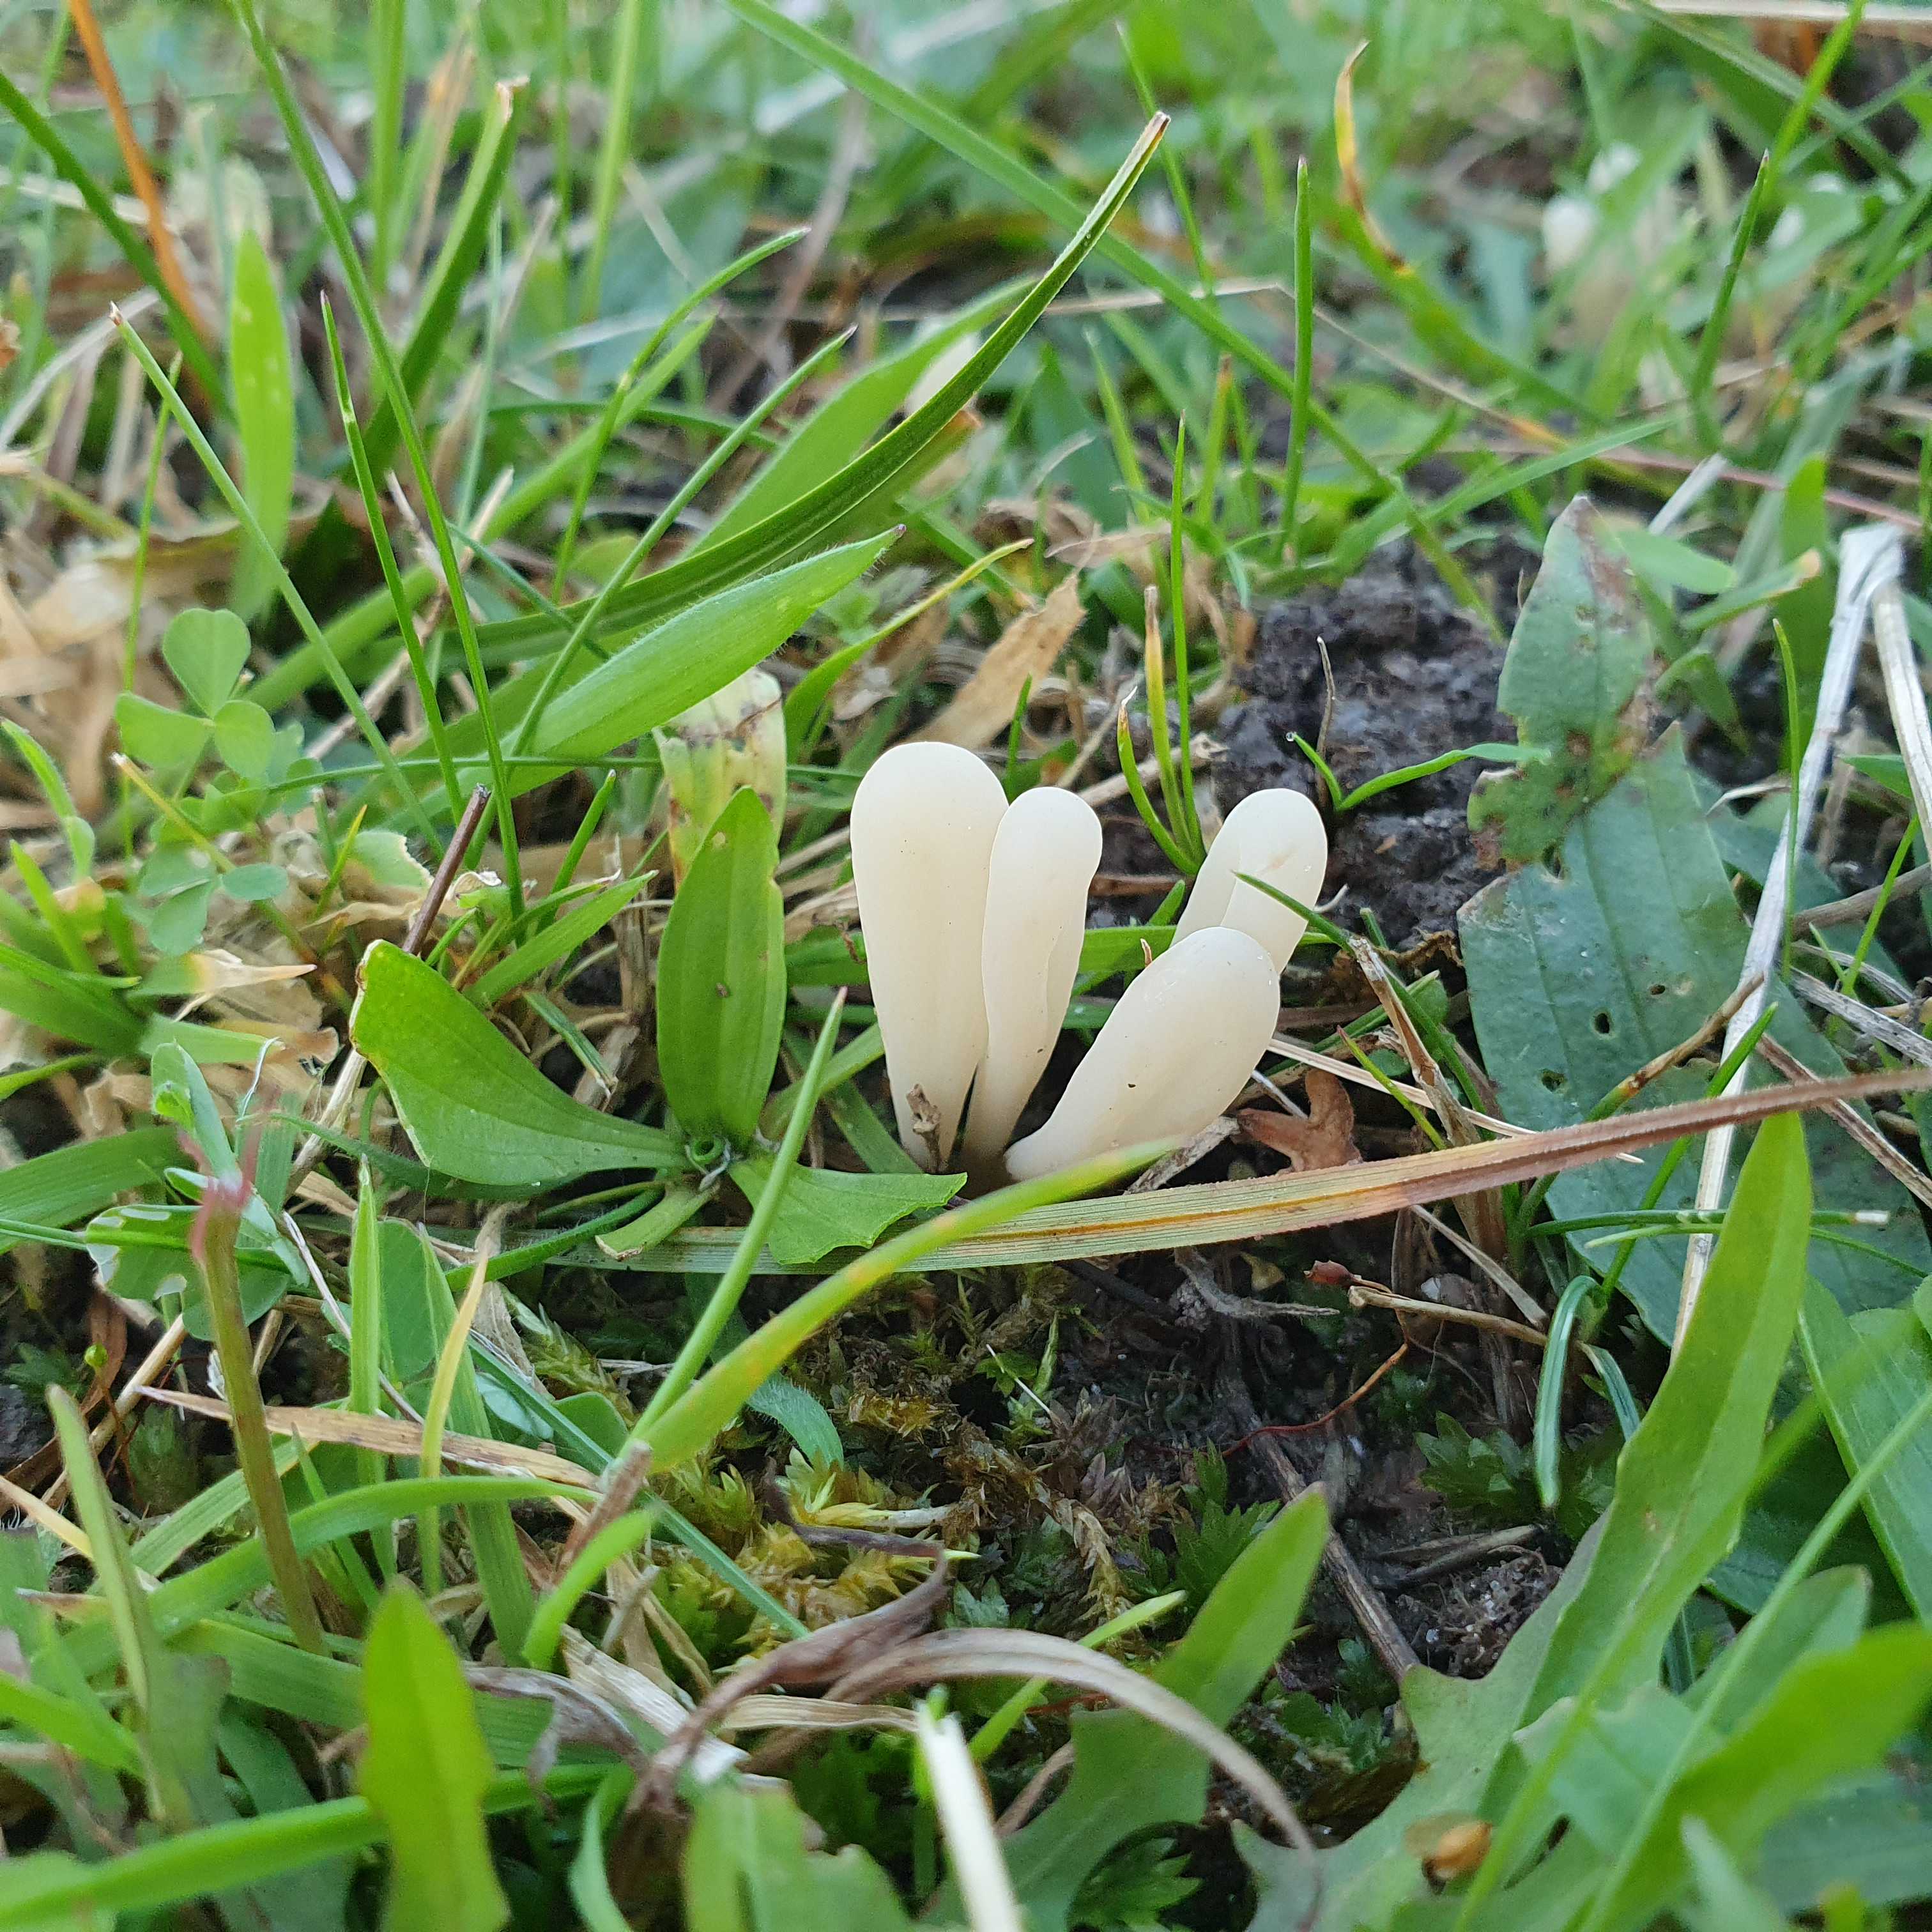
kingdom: Fungi
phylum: Basidiomycota
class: Agaricomycetes
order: Agaricales
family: Clavariaceae
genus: Clavaria
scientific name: Clavaria tenuipes
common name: isabellafarvet køllesvamp
